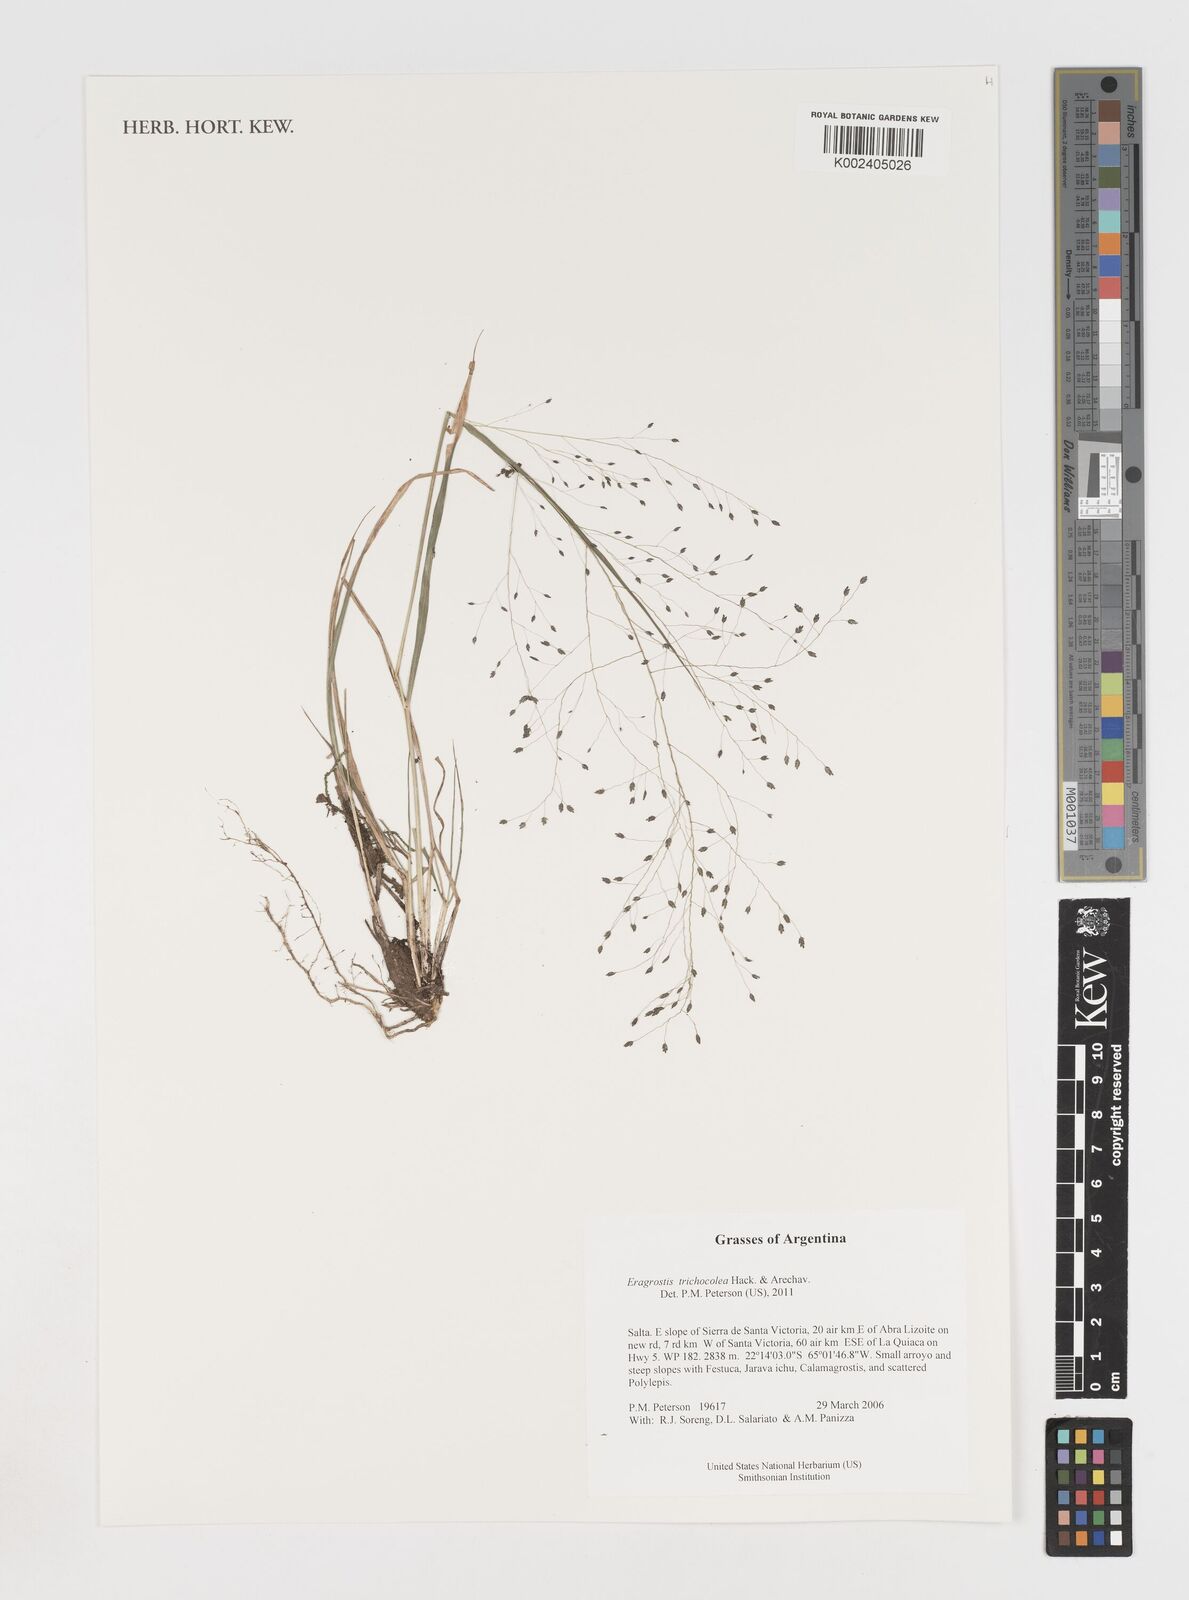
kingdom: Plantae
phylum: Tracheophyta
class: Liliopsida
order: Poales
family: Poaceae
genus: Eragrostis
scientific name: Eragrostis trichocolea
